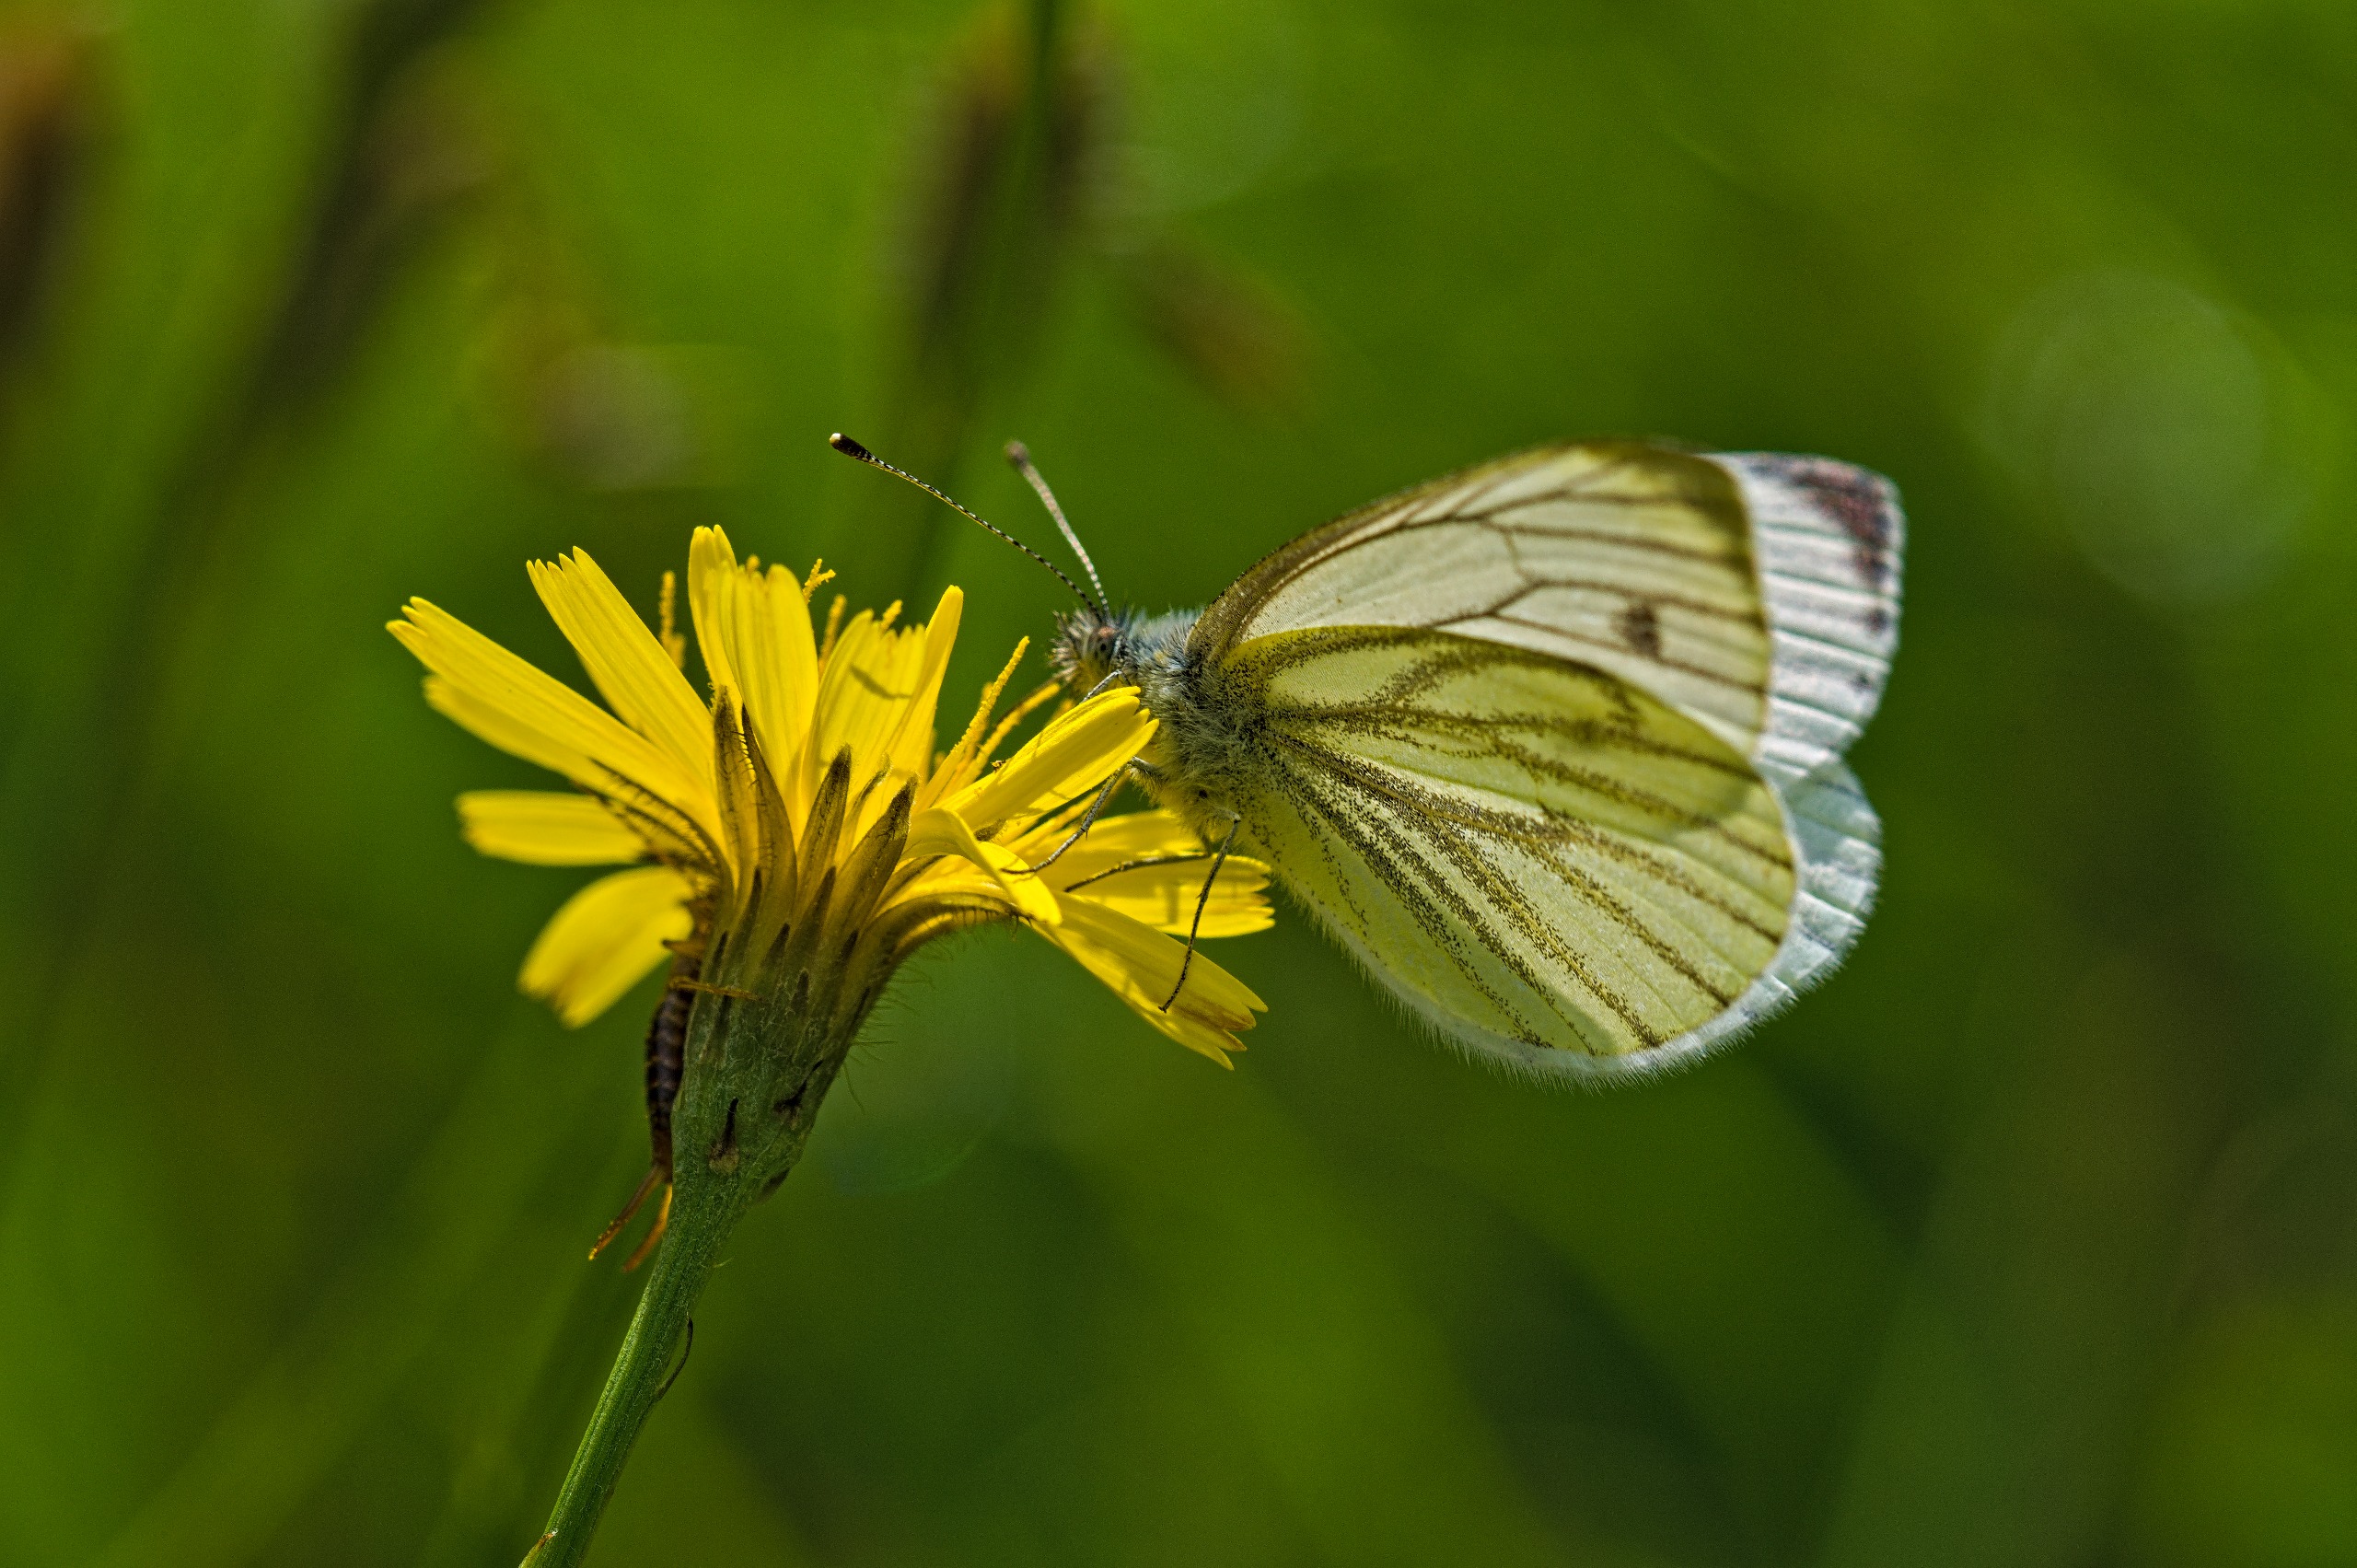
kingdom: Animalia
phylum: Arthropoda
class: Insecta
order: Lepidoptera
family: Pieridae
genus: Pieris
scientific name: Pieris napi
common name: Grønåret kålsommerfugl
